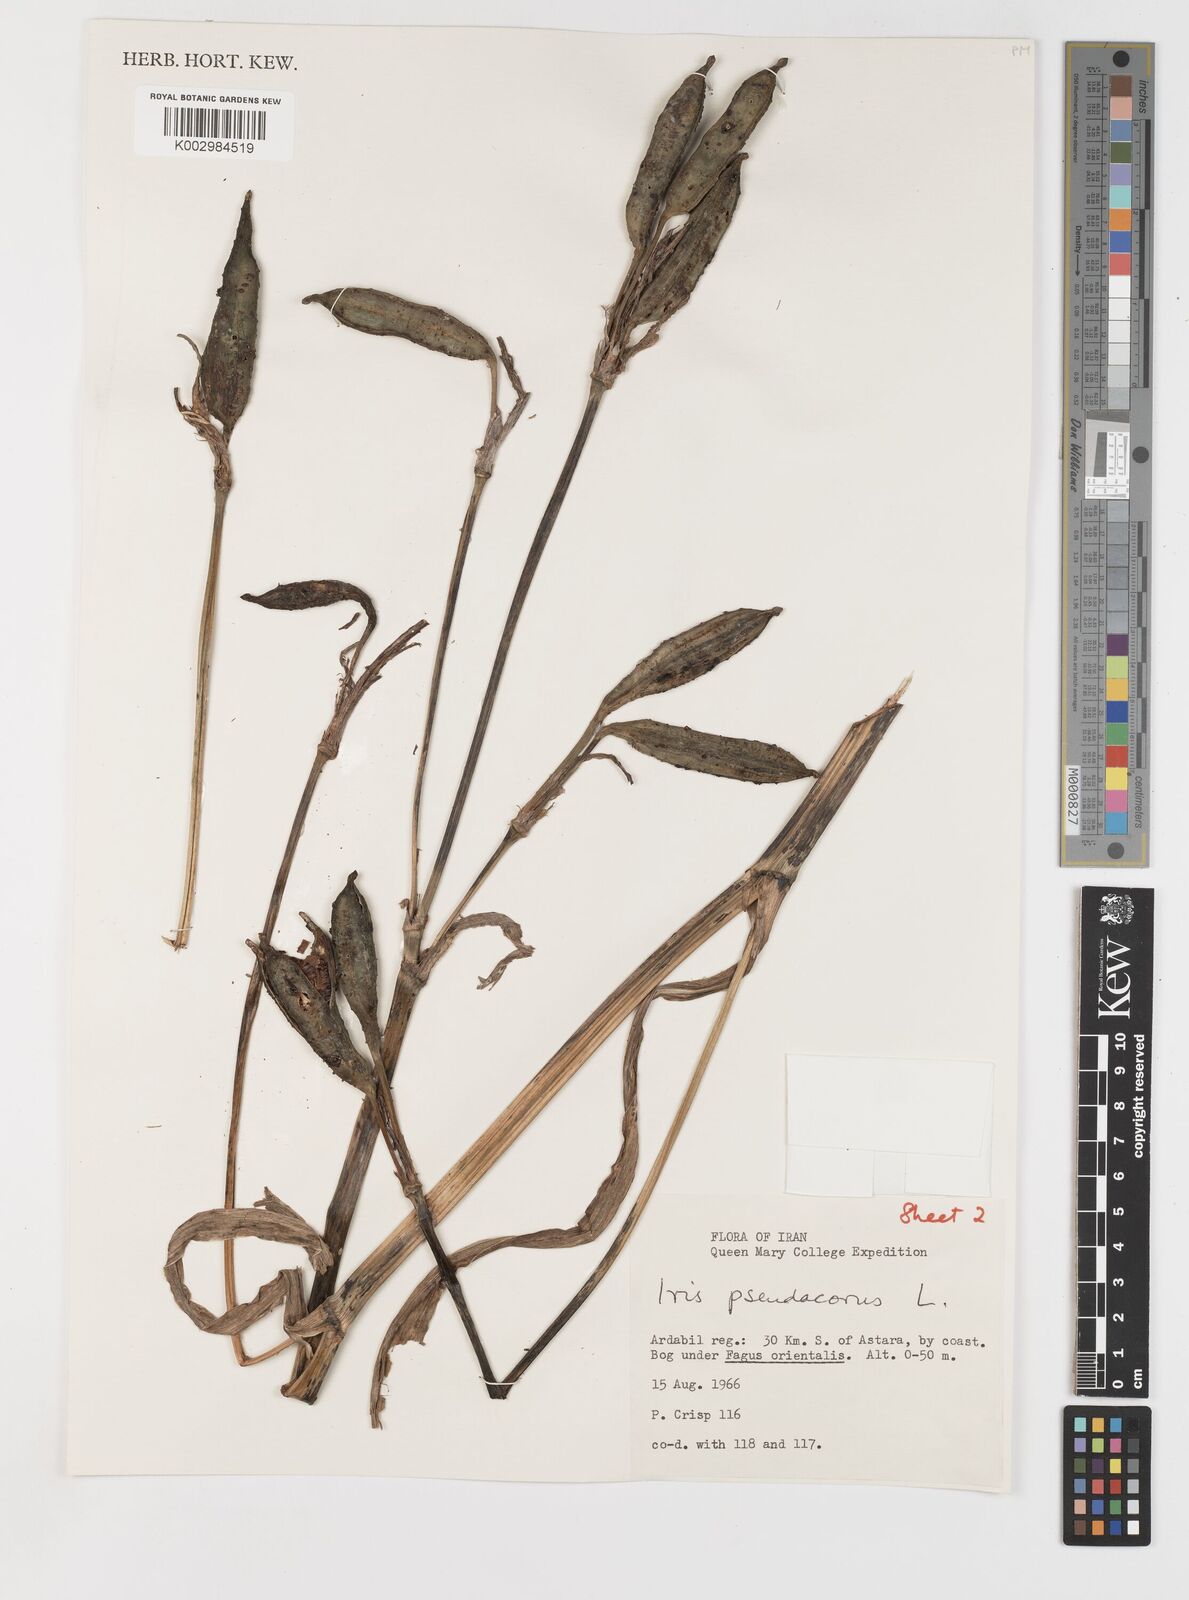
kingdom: Plantae
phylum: Tracheophyta
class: Liliopsida
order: Asparagales
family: Iridaceae
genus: Iris
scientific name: Iris pseudacorus
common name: Yellow flag
